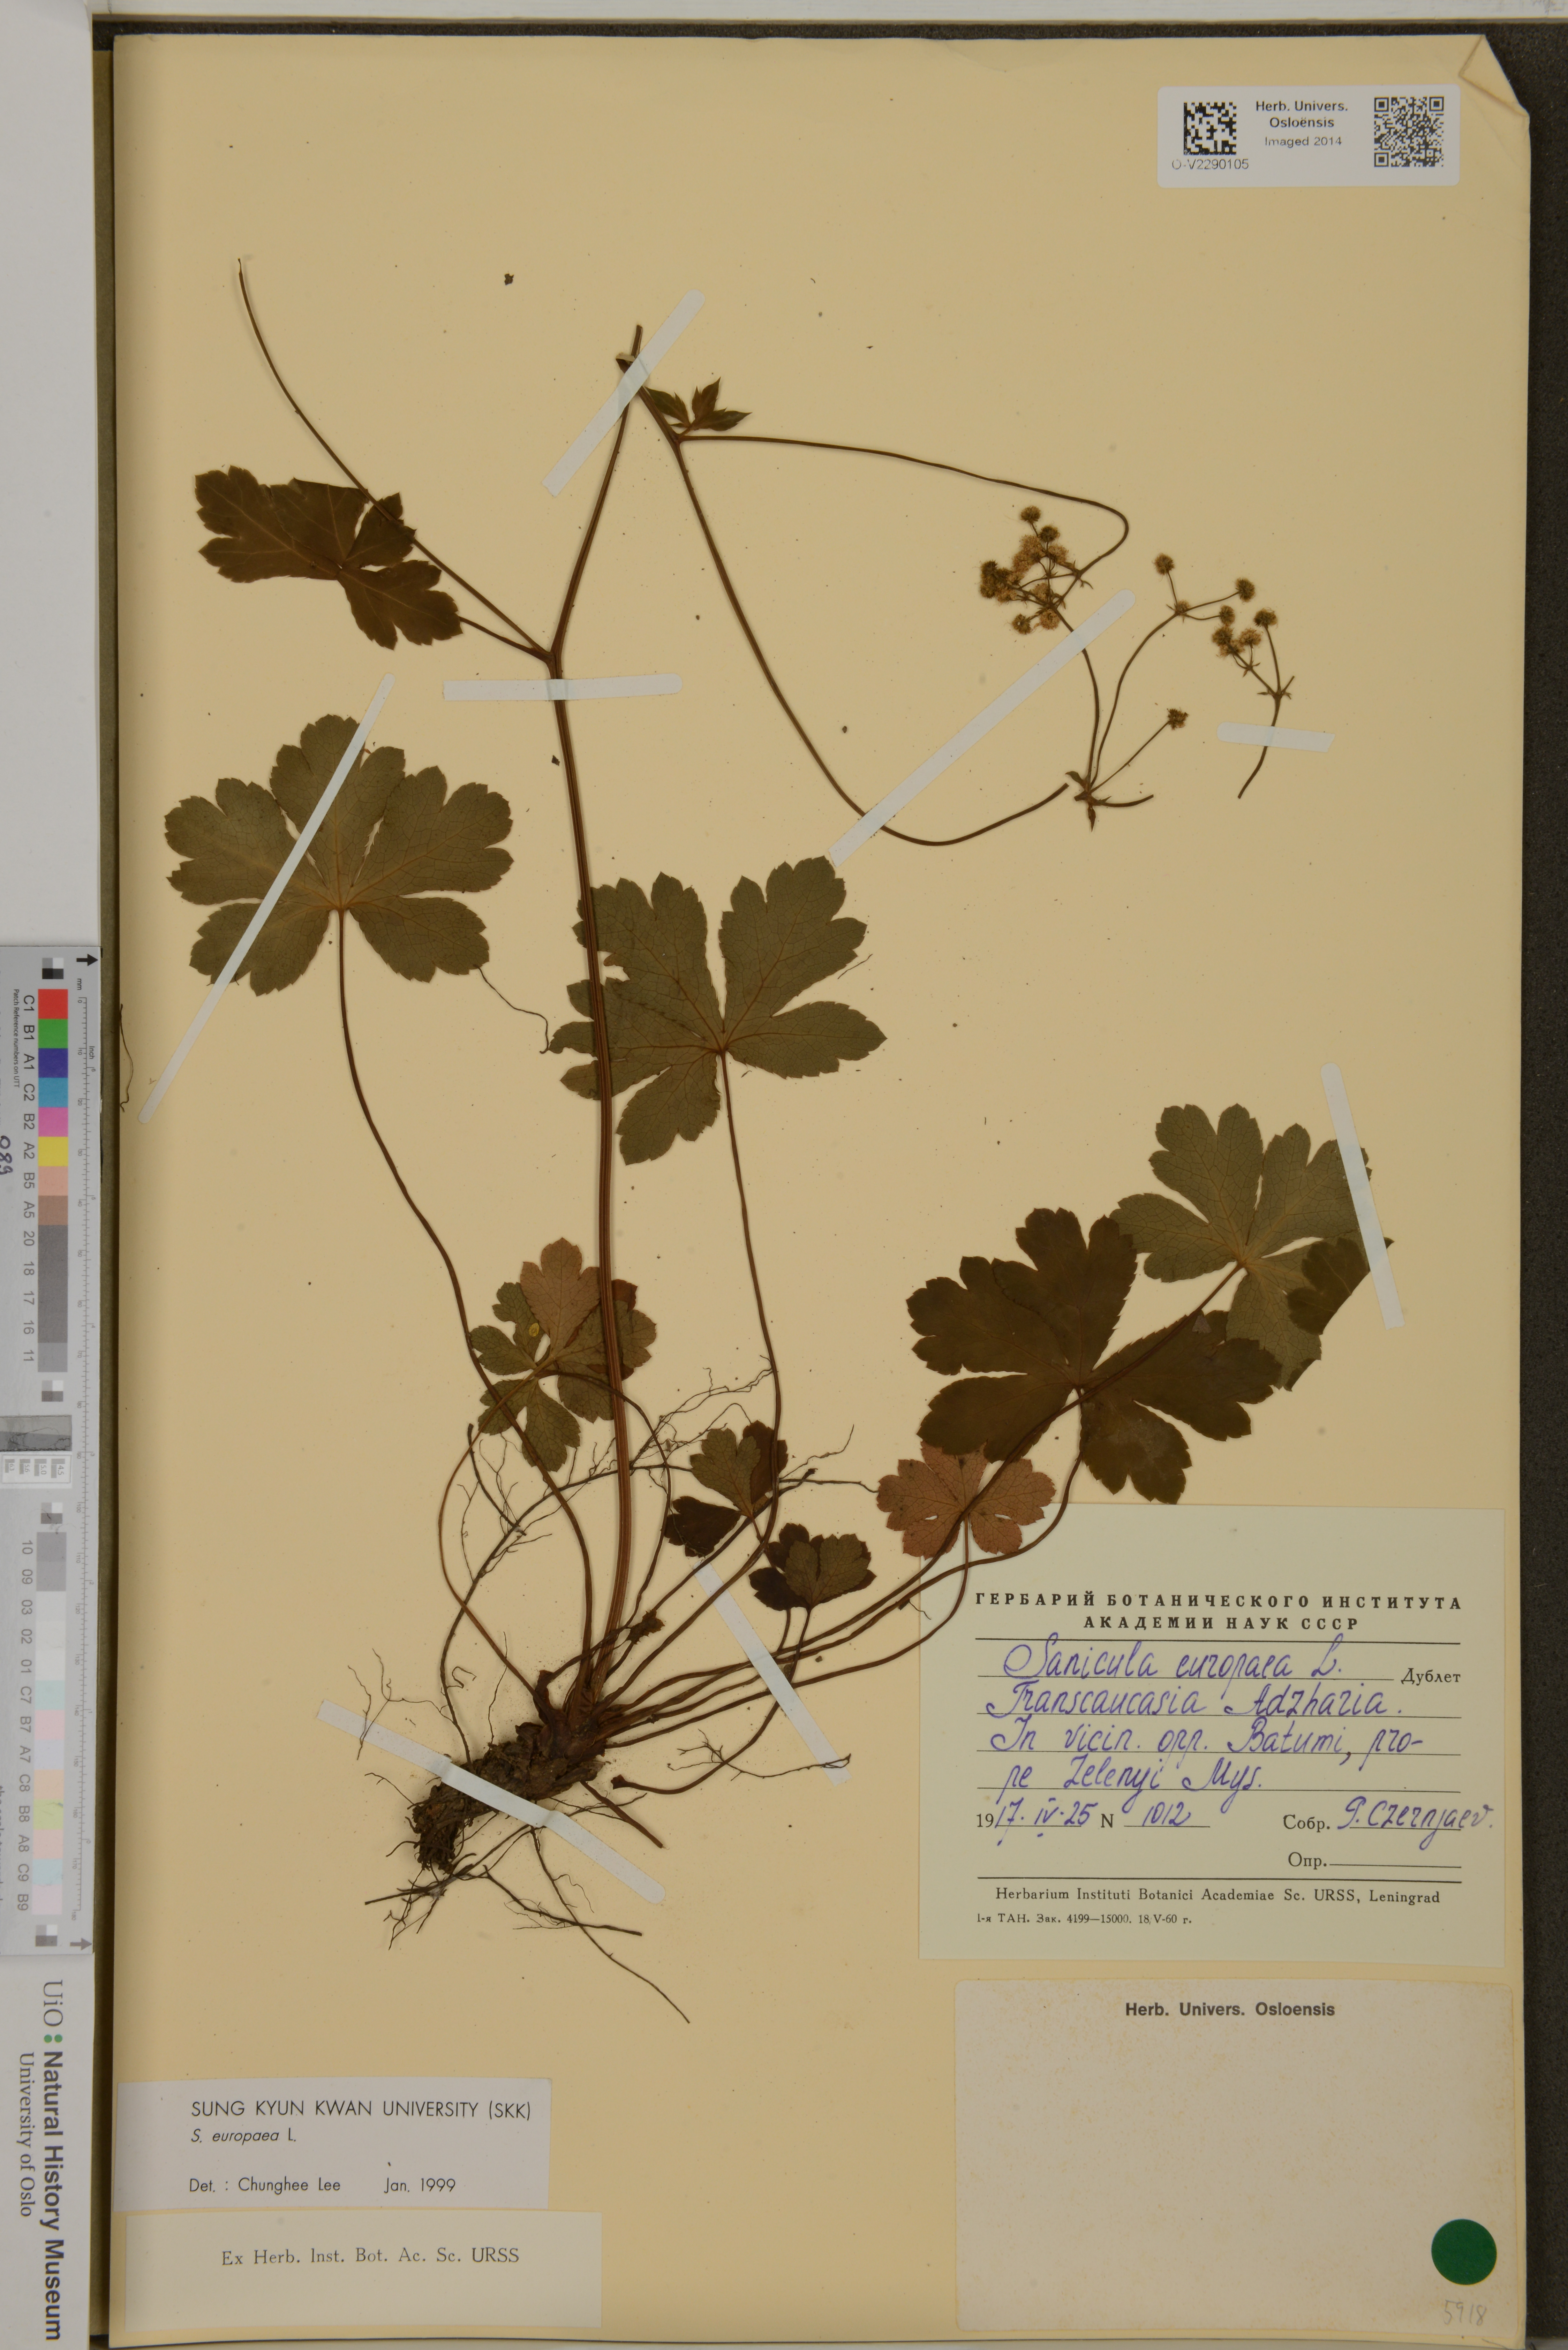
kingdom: Plantae
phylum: Tracheophyta
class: Magnoliopsida
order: Apiales
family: Apiaceae
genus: Sanicula
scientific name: Sanicula europaea
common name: Sanicle
